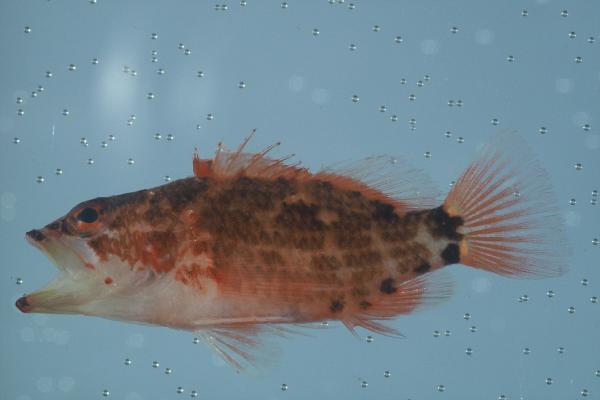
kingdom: Animalia
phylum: Chordata
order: Perciformes
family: Serranidae
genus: Plectranthias
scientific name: Plectranthias longimanus
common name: Longfin perchlet
